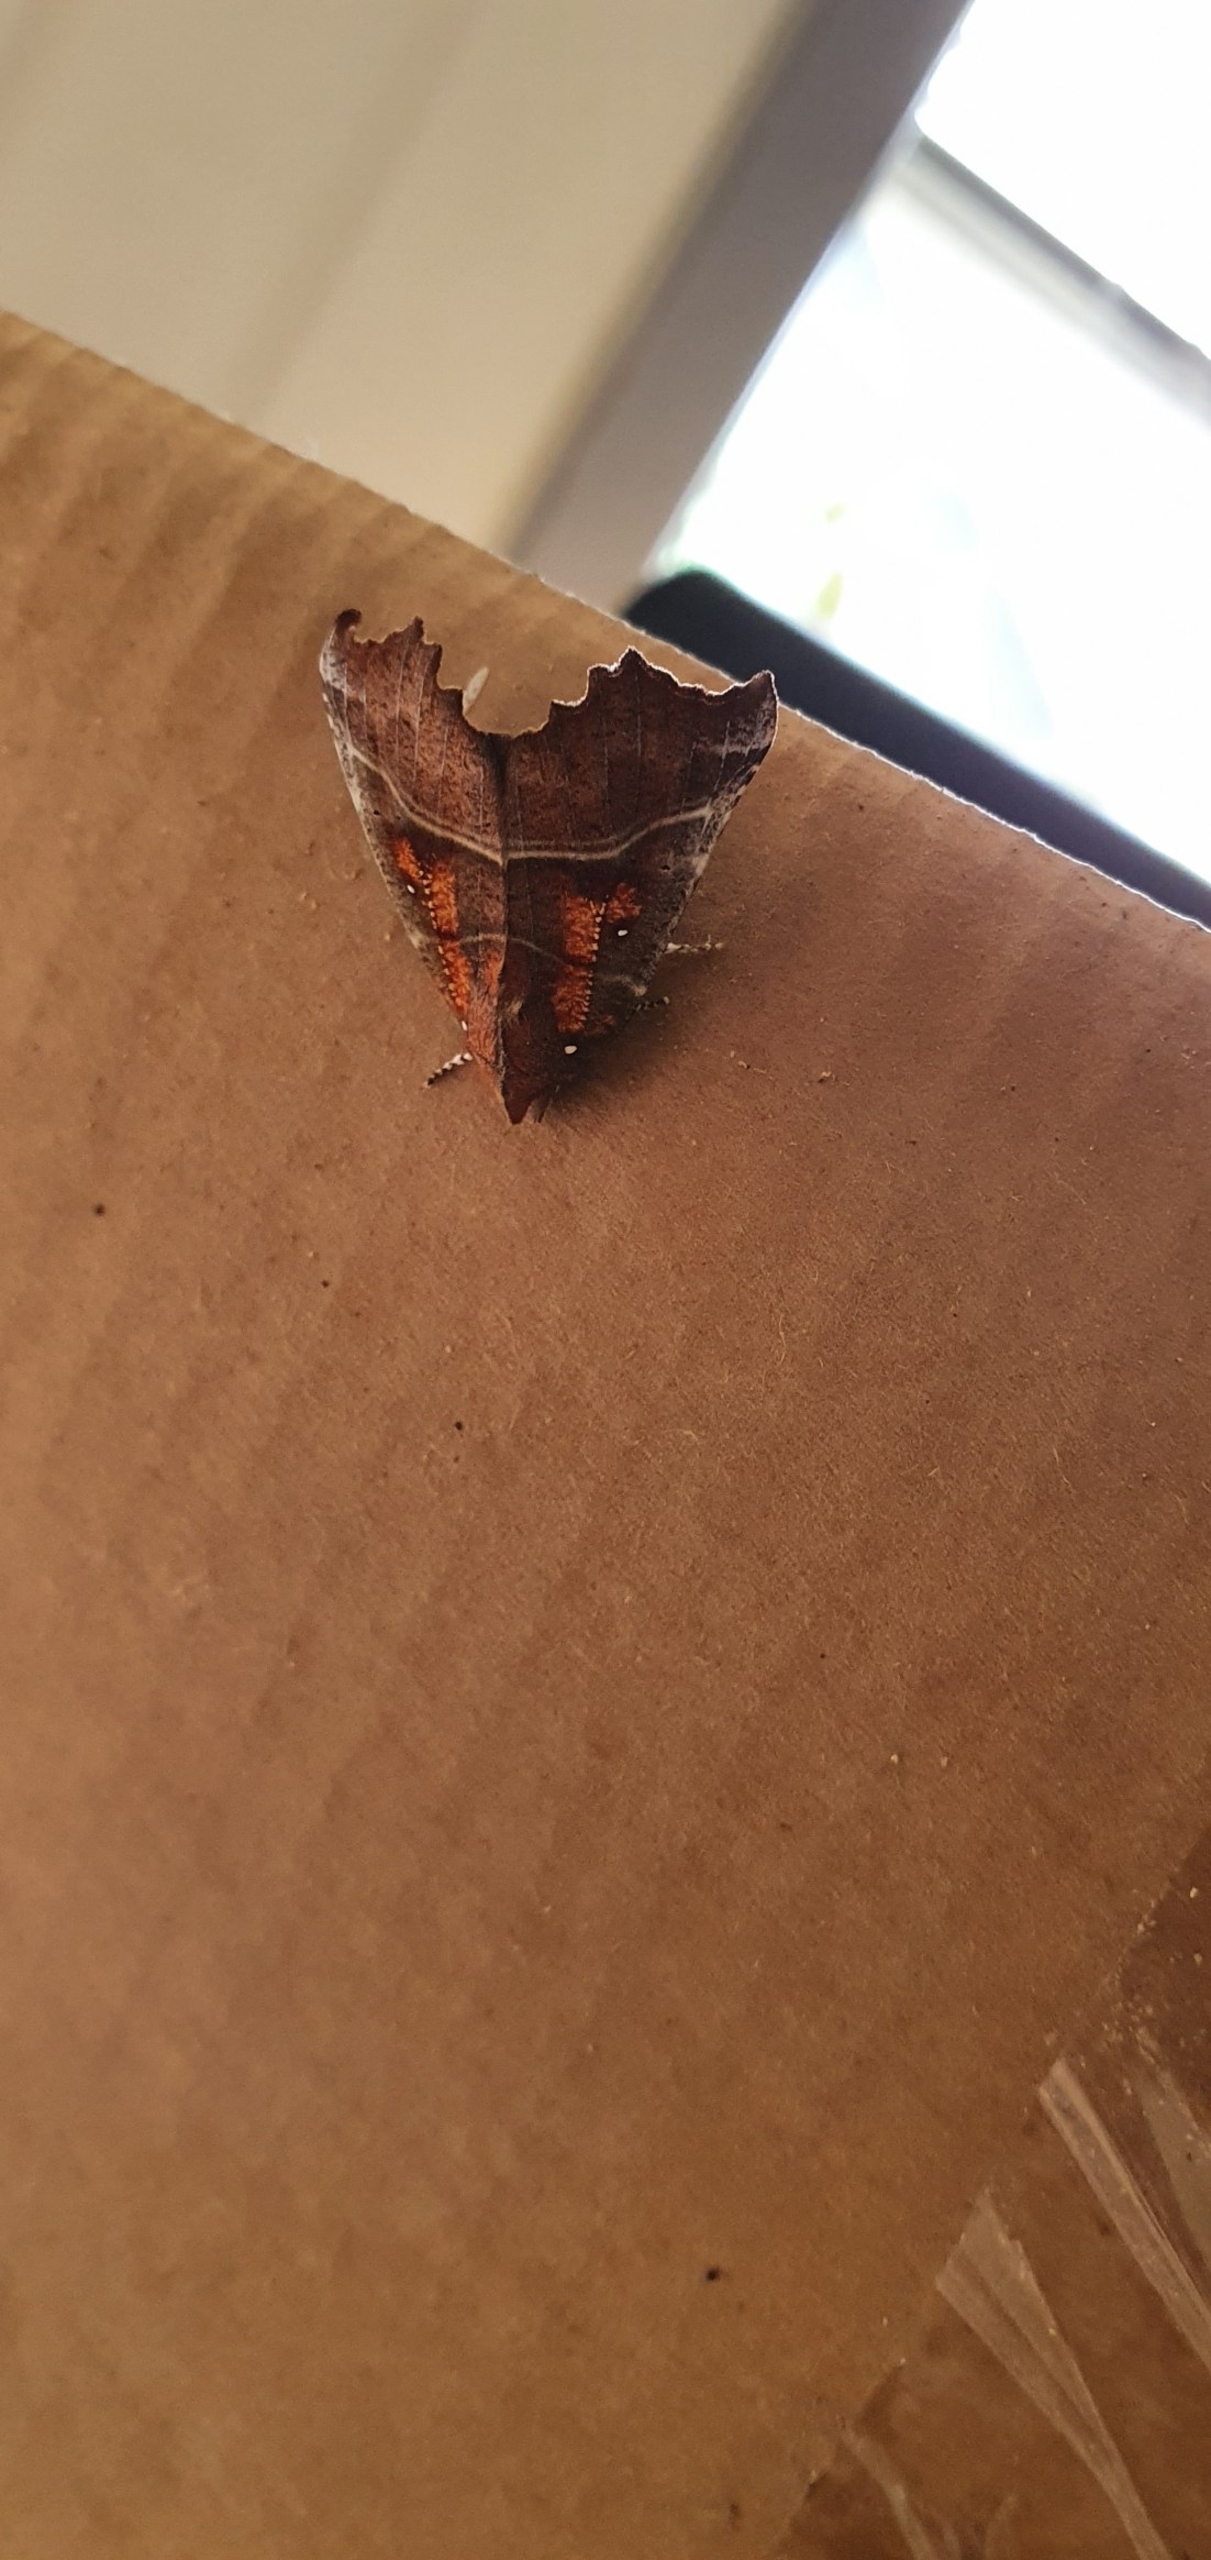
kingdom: Animalia
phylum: Arthropoda
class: Insecta
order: Lepidoptera
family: Erebidae
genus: Scoliopteryx
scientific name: Scoliopteryx libatrix
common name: Husmoderugle
